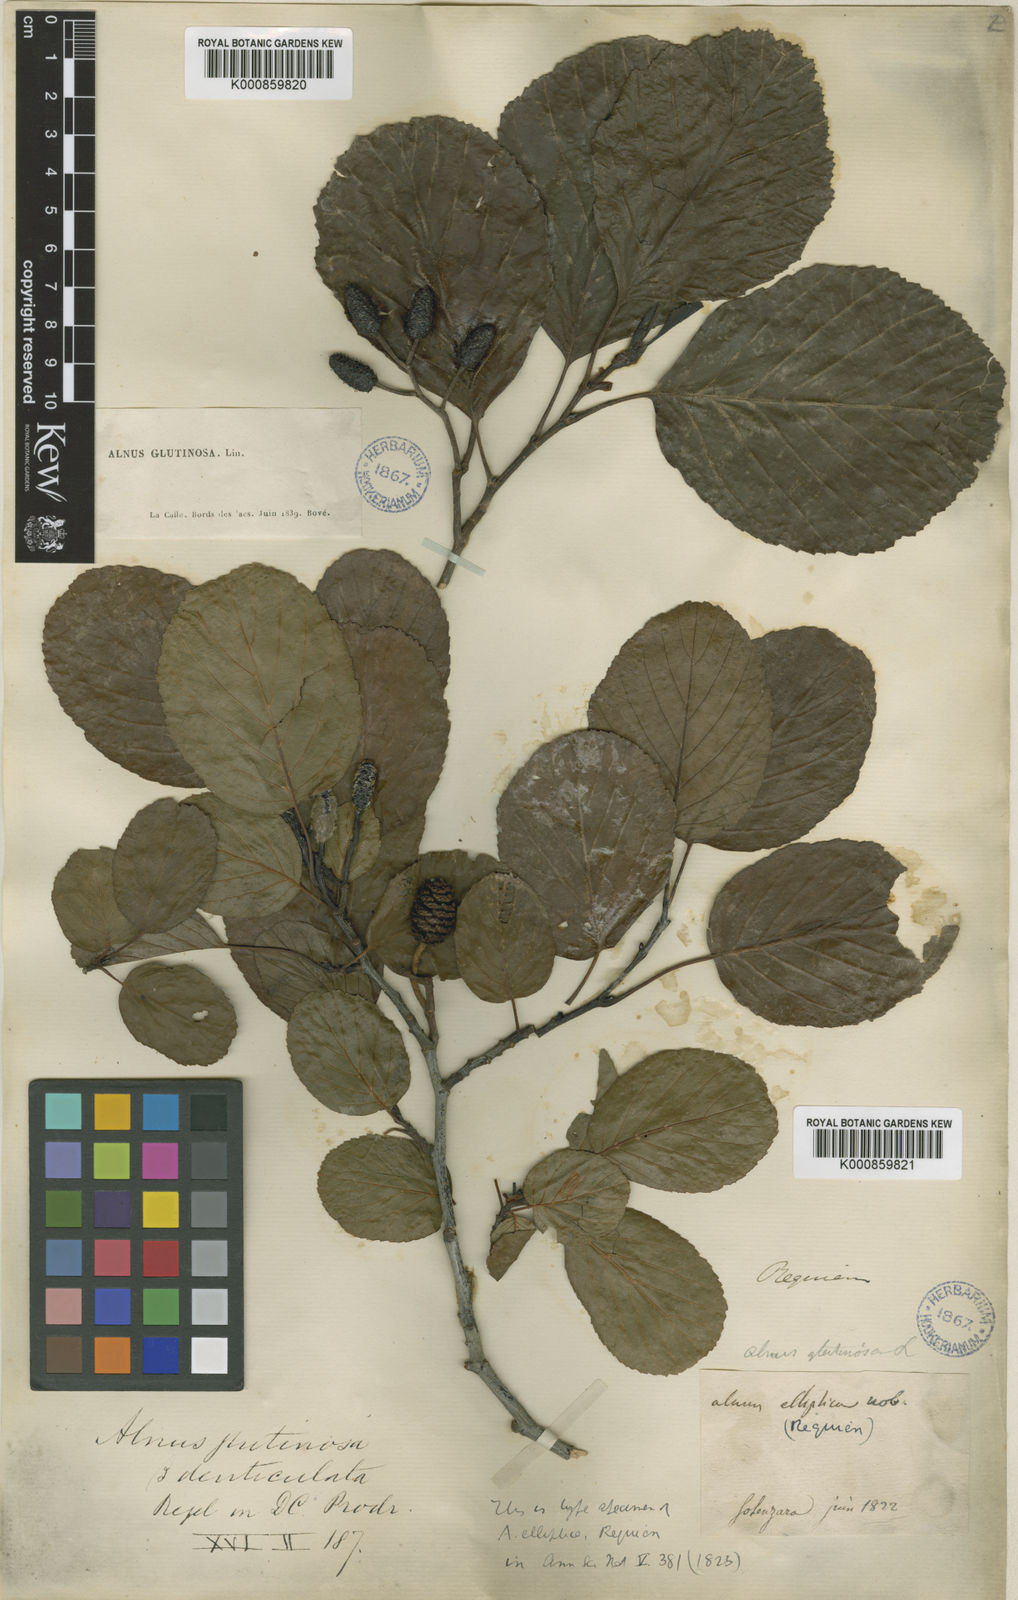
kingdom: Plantae
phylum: Tracheophyta
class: Magnoliopsida
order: Fagales
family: Betulaceae
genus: Alnus
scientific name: Alnus elliptica
